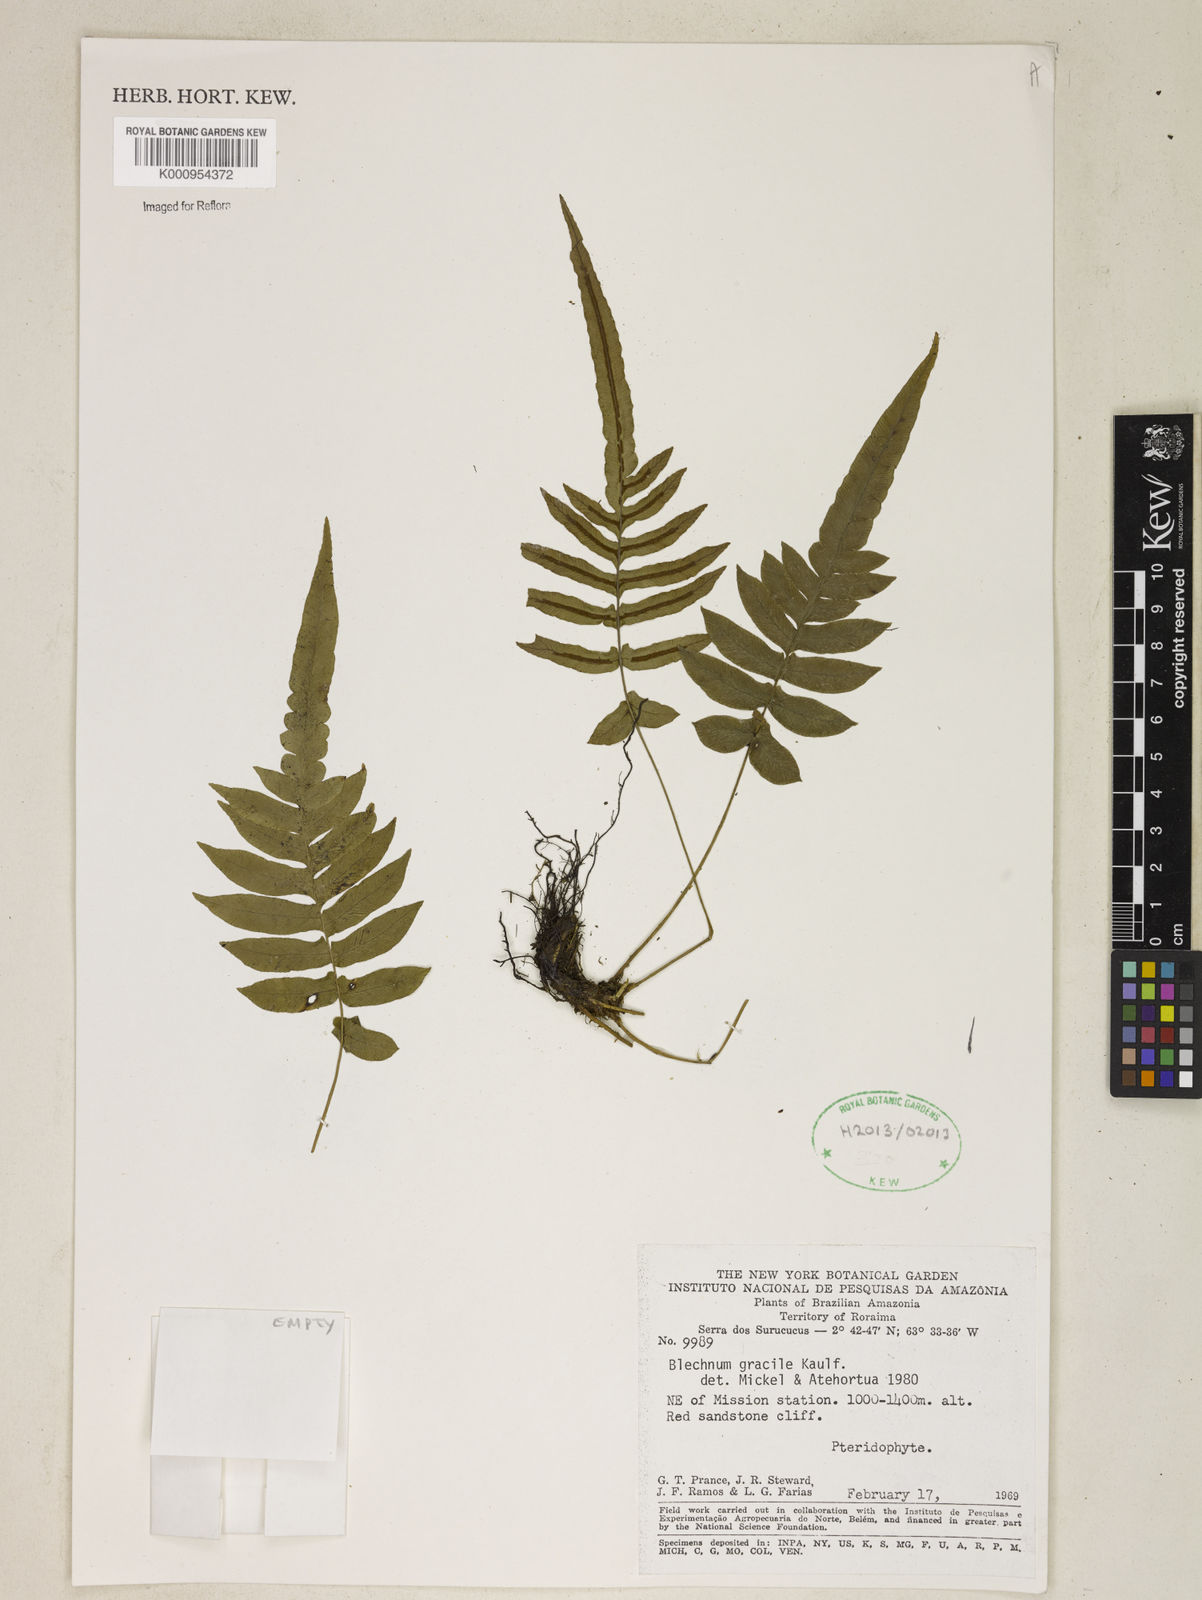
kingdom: Plantae
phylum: Tracheophyta
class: Polypodiopsida
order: Polypodiales
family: Blechnaceae
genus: Blechnum
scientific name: Blechnum gracile
